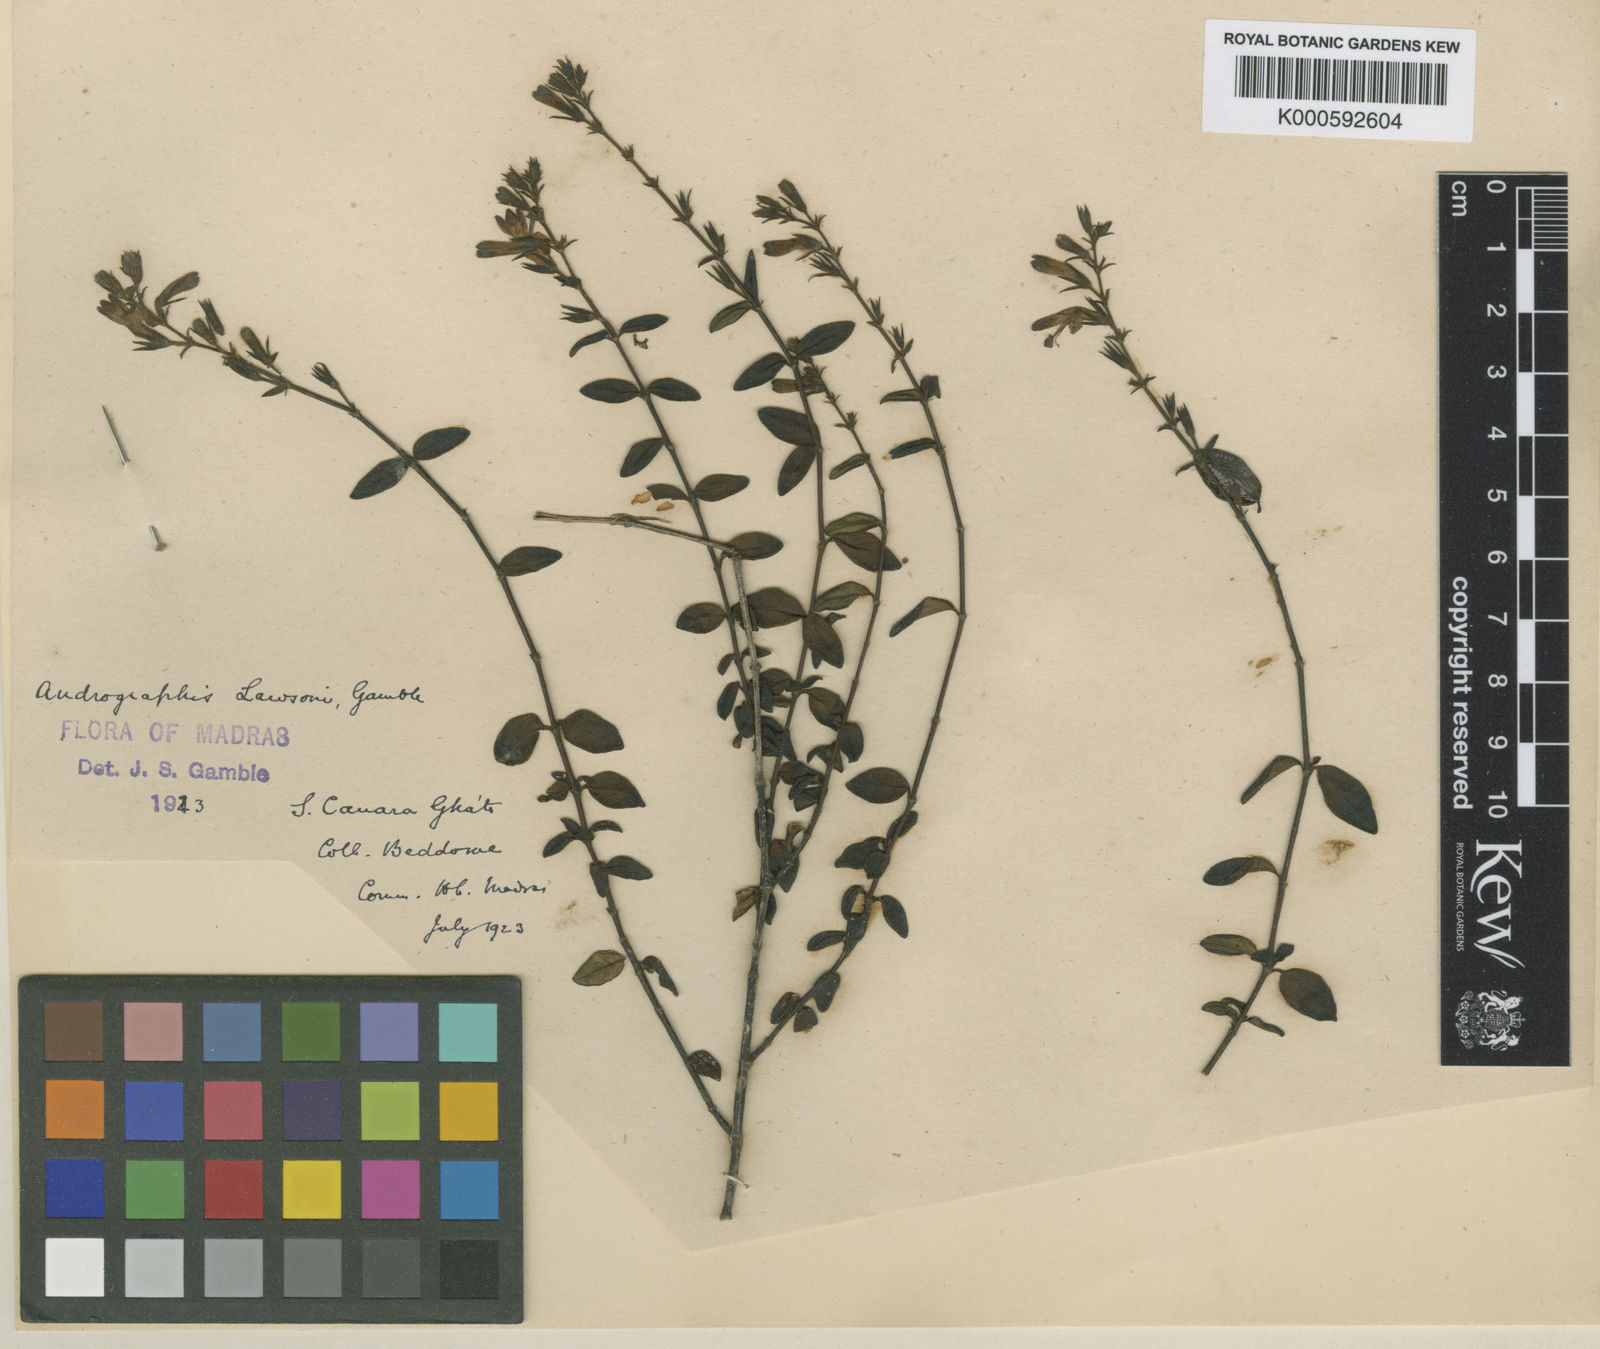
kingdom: Plantae
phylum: Tracheophyta
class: Magnoliopsida
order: Lamiales
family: Acanthaceae
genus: Andrographis
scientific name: Andrographis lawsonii
